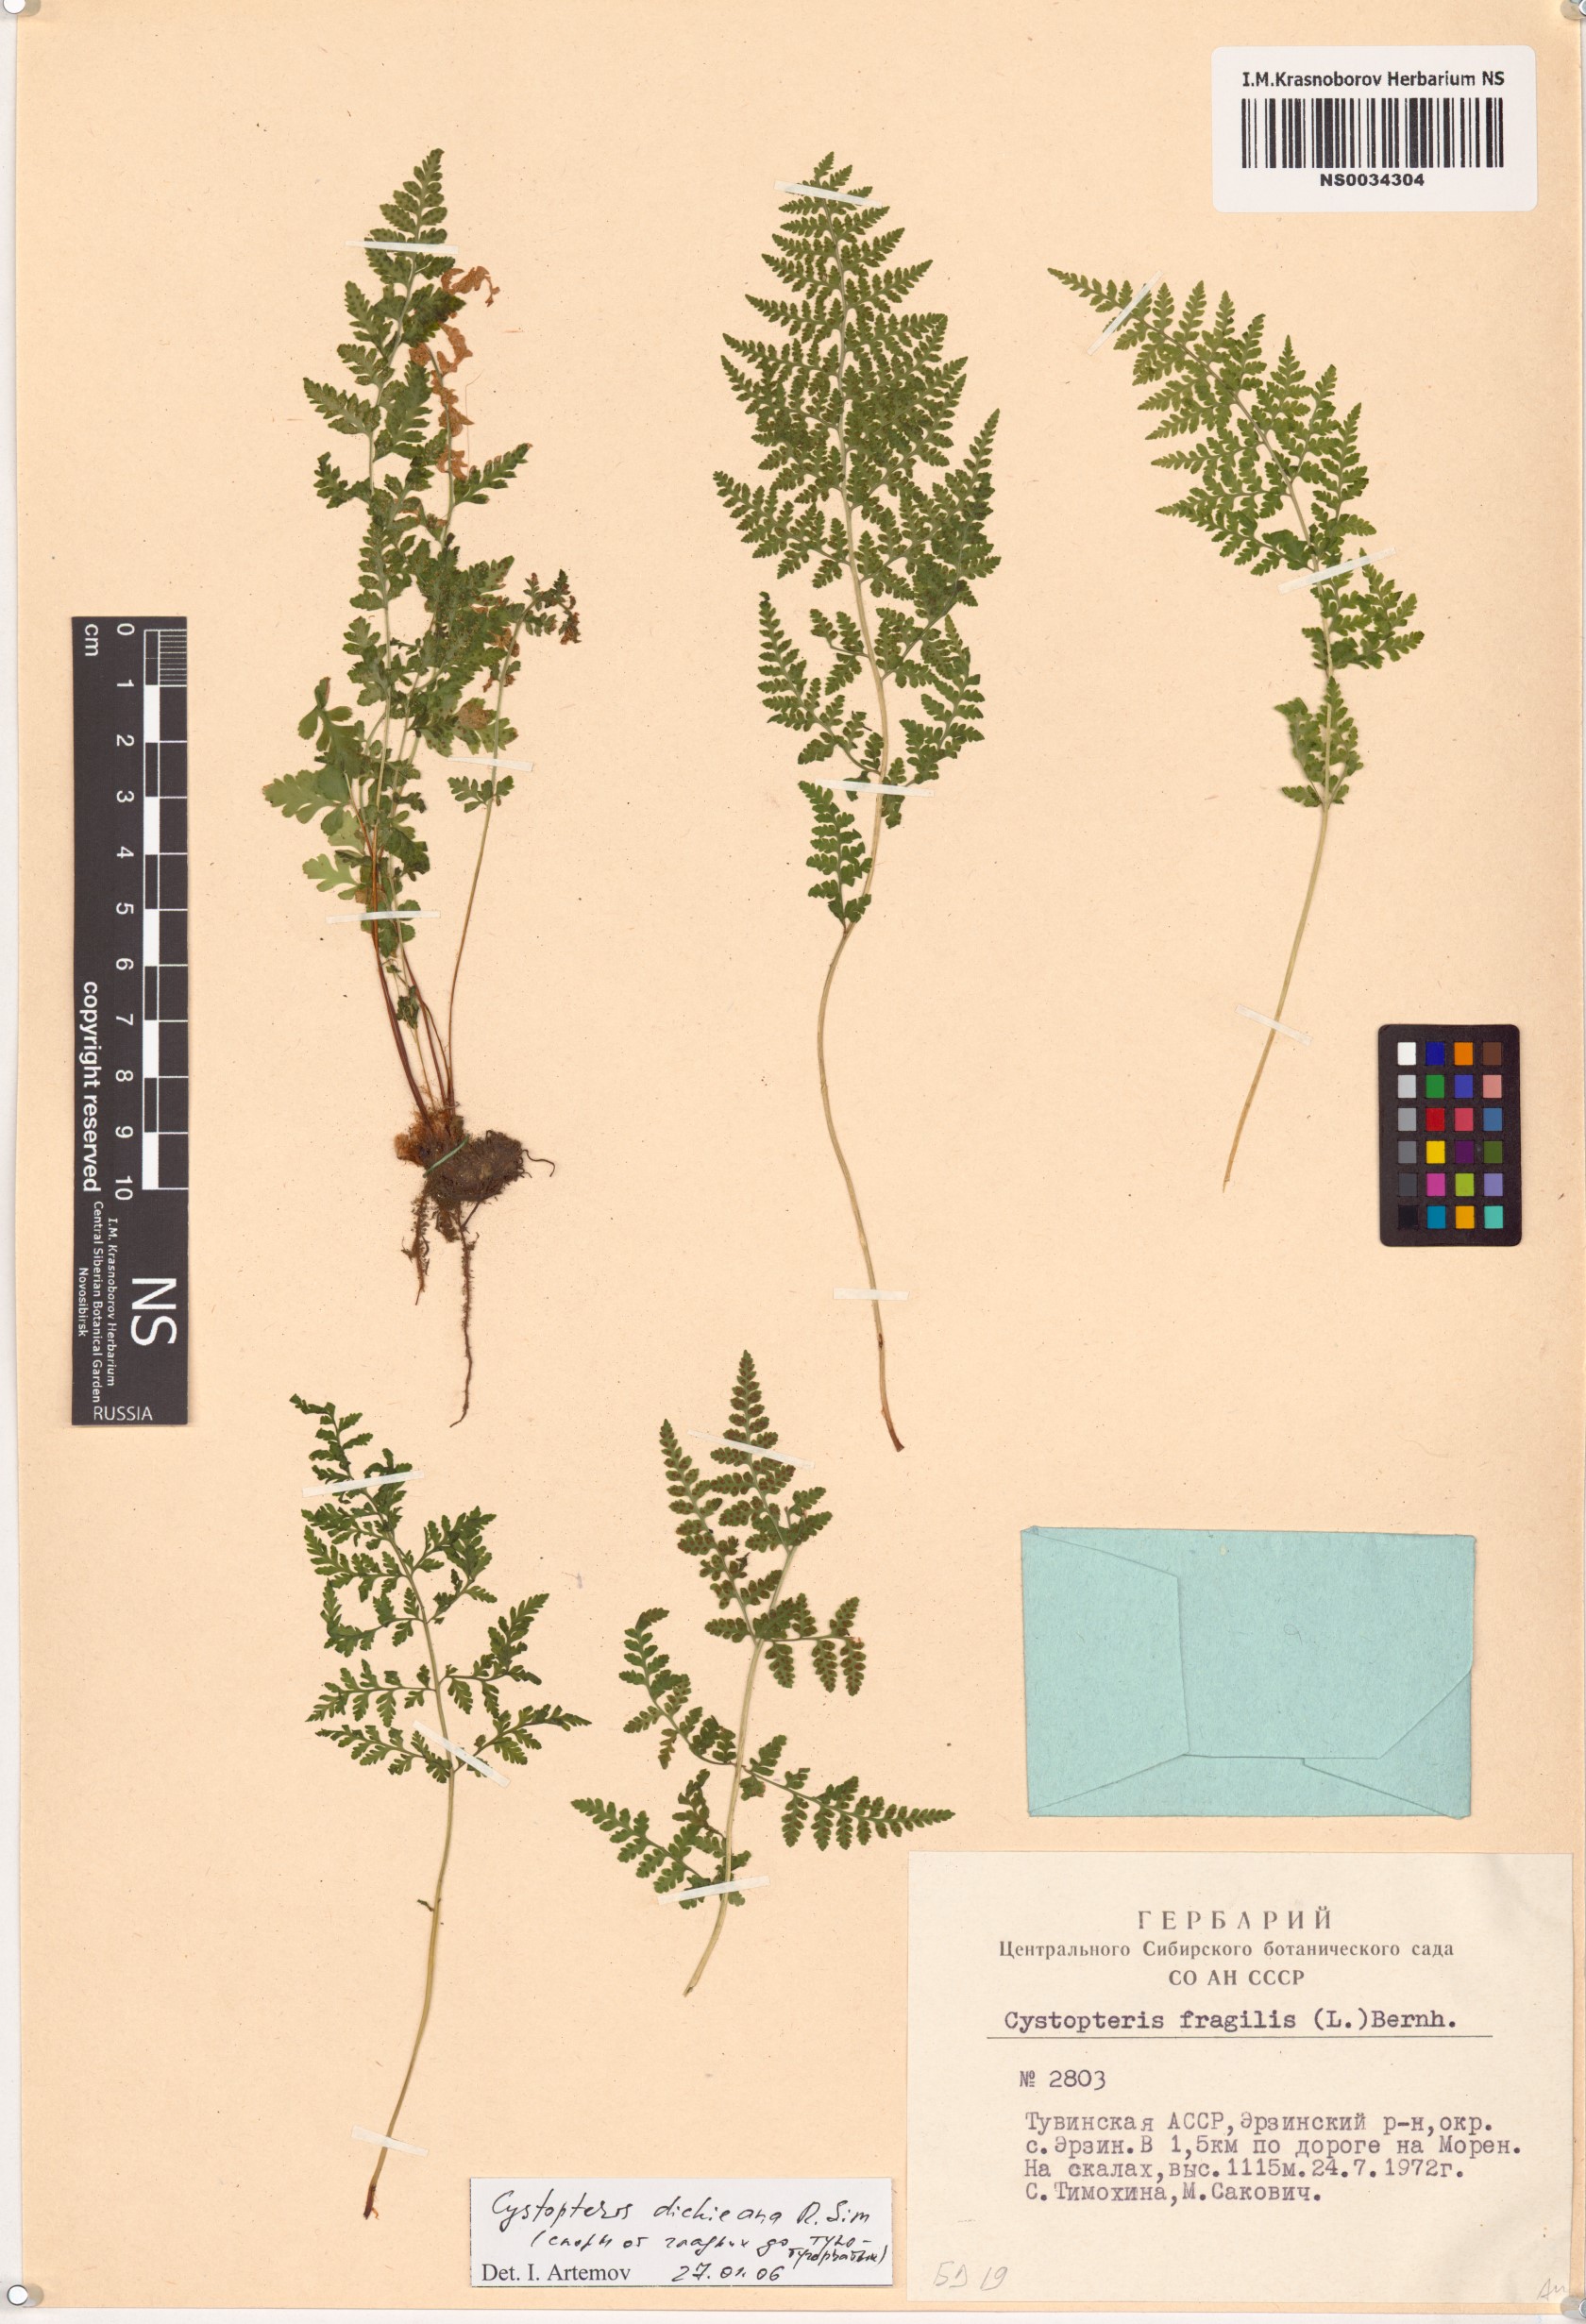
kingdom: Plantae
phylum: Tracheophyta
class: Polypodiopsida
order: Polypodiales
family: Cystopteridaceae
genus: Cystopteris
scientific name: Cystopteris dickieana
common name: Dickie's bladder-fern
